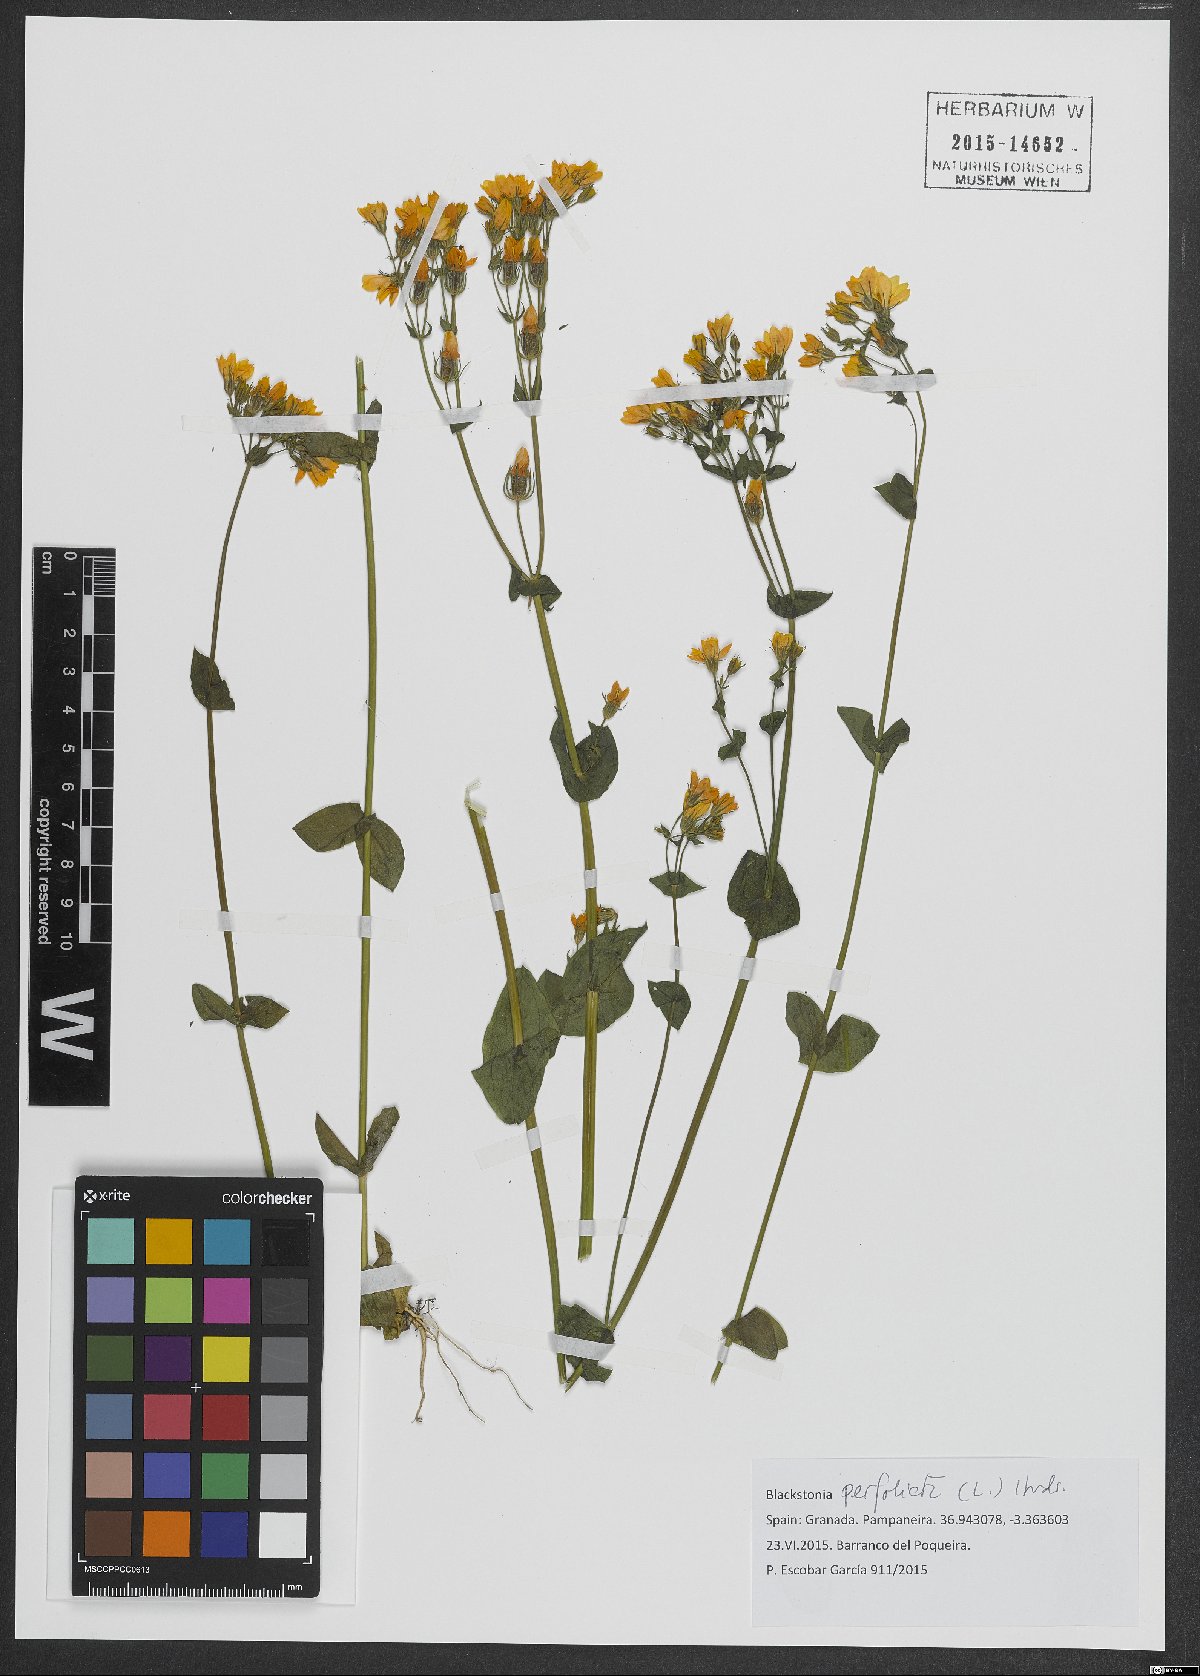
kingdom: Plantae
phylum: Tracheophyta
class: Magnoliopsida
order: Gentianales
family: Gentianaceae
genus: Blackstonia
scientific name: Blackstonia perfoliata
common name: Yellow-wort
